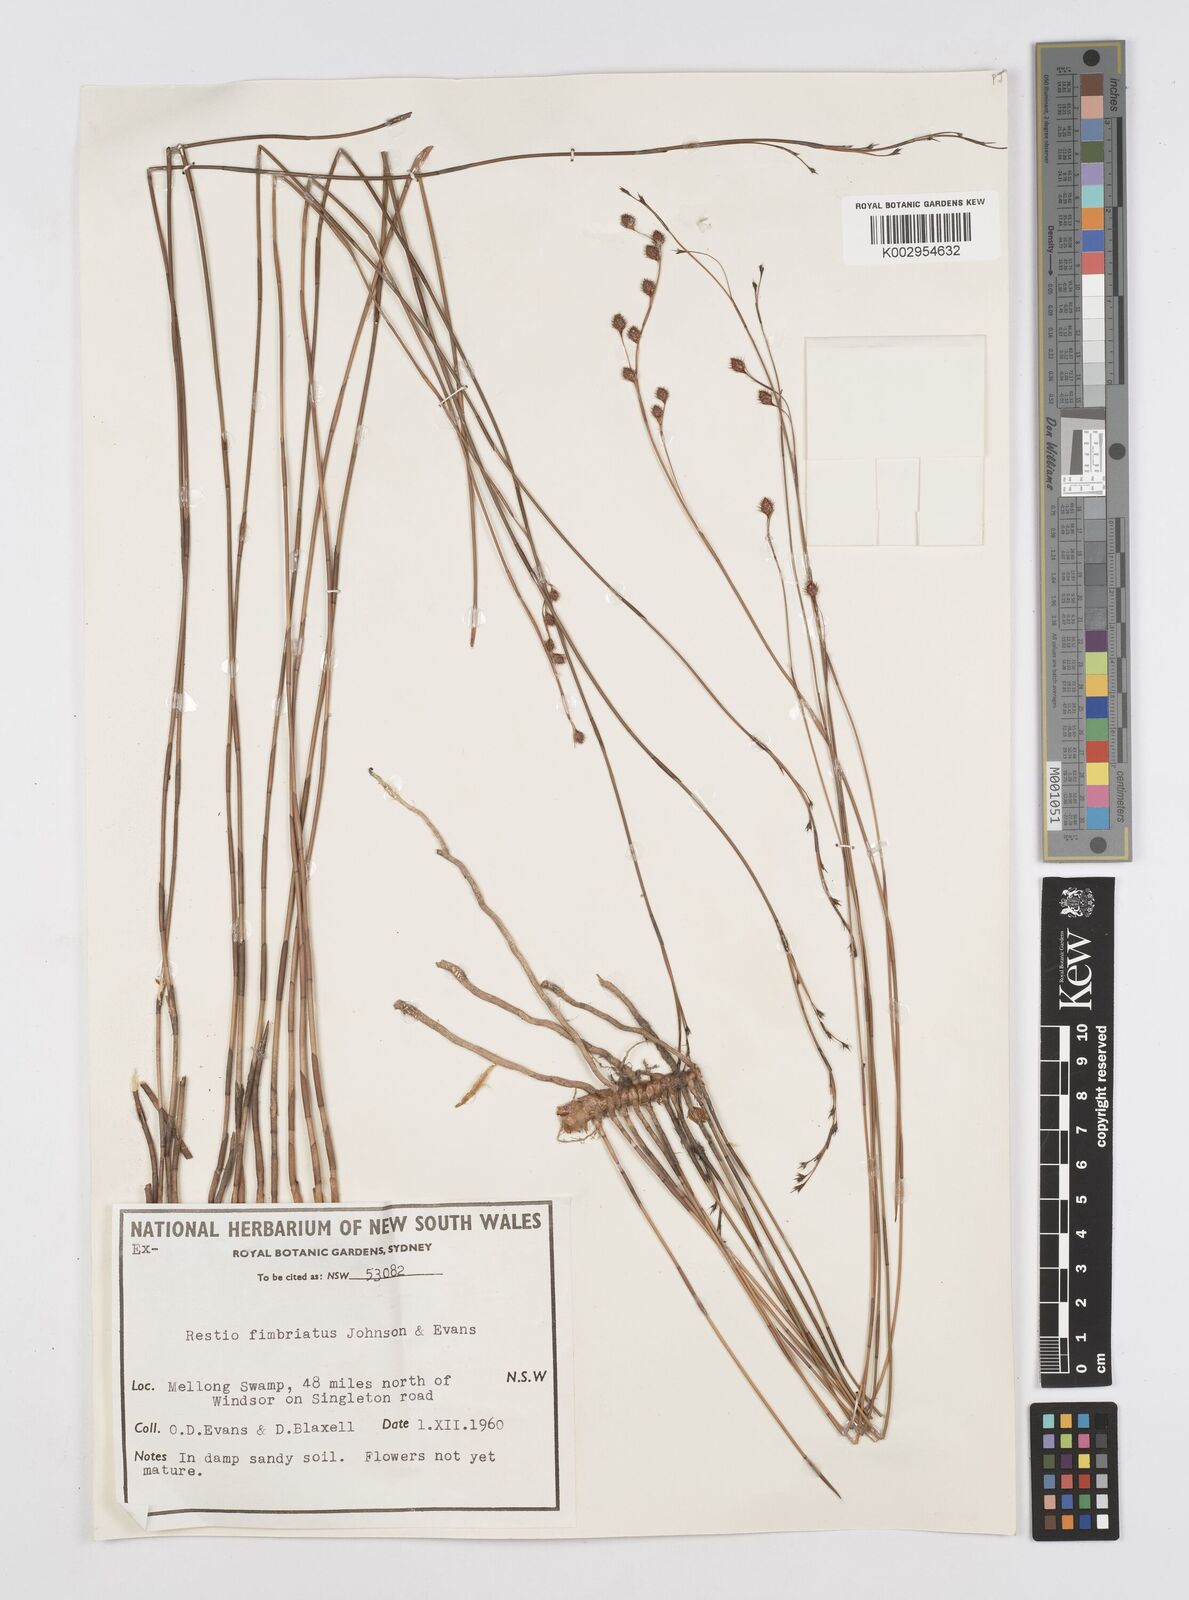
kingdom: Plantae
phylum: Tracheophyta
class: Liliopsida
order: Poales
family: Restionaceae
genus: Baloskion
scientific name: Baloskion fimbriatum
